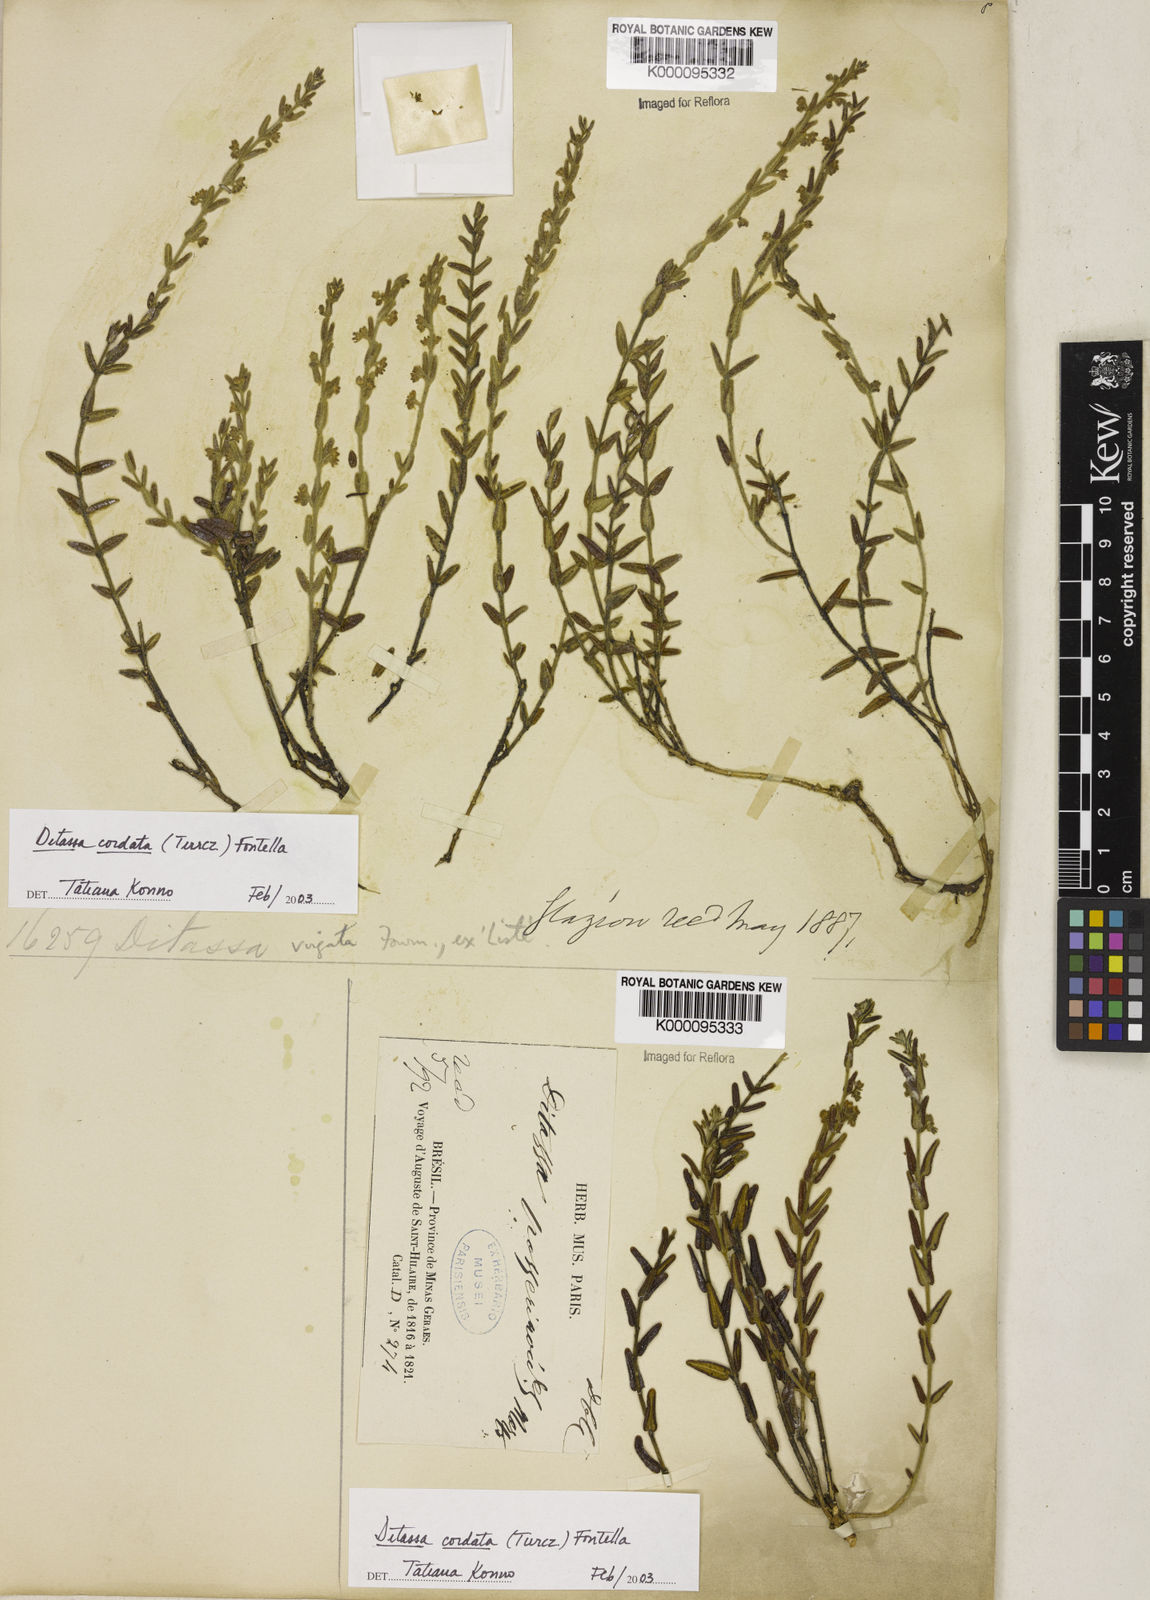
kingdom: Plantae
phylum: Tracheophyta
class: Magnoliopsida
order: Gentianales
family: Apocynaceae
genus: Minaria
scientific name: Minaria cordata
